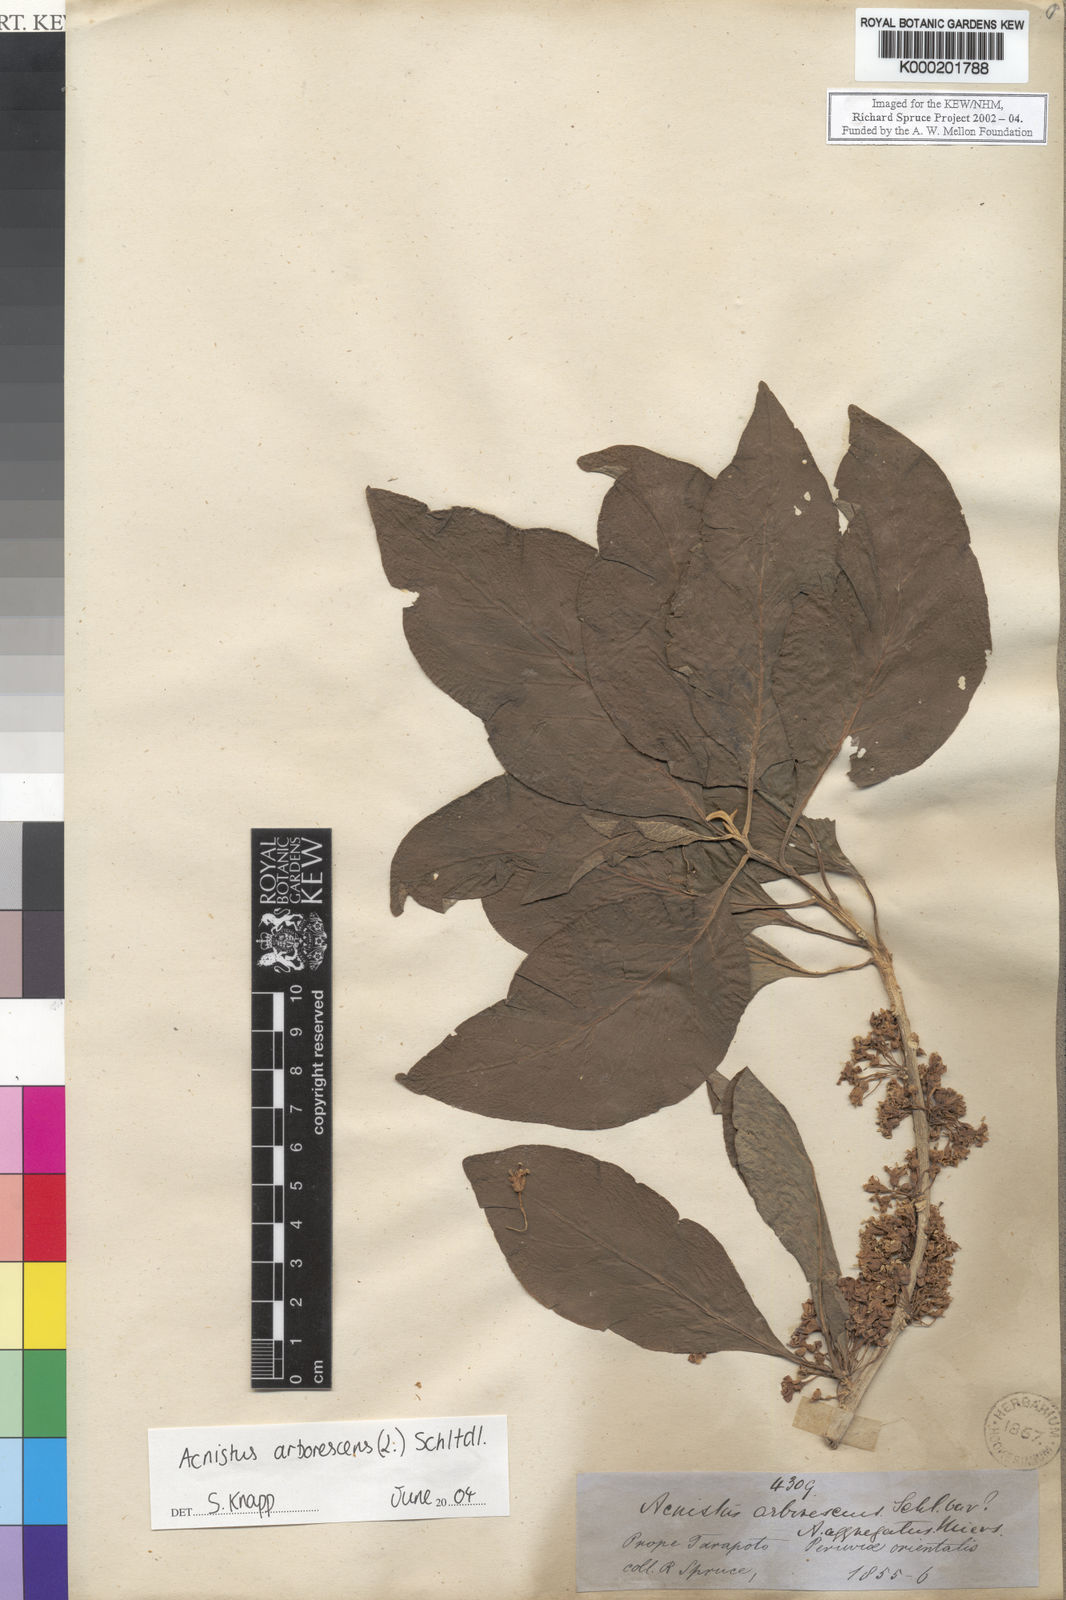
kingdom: Plantae
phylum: Tracheophyta
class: Magnoliopsida
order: Solanales
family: Solanaceae
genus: Iochroma
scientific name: Iochroma arborescens
